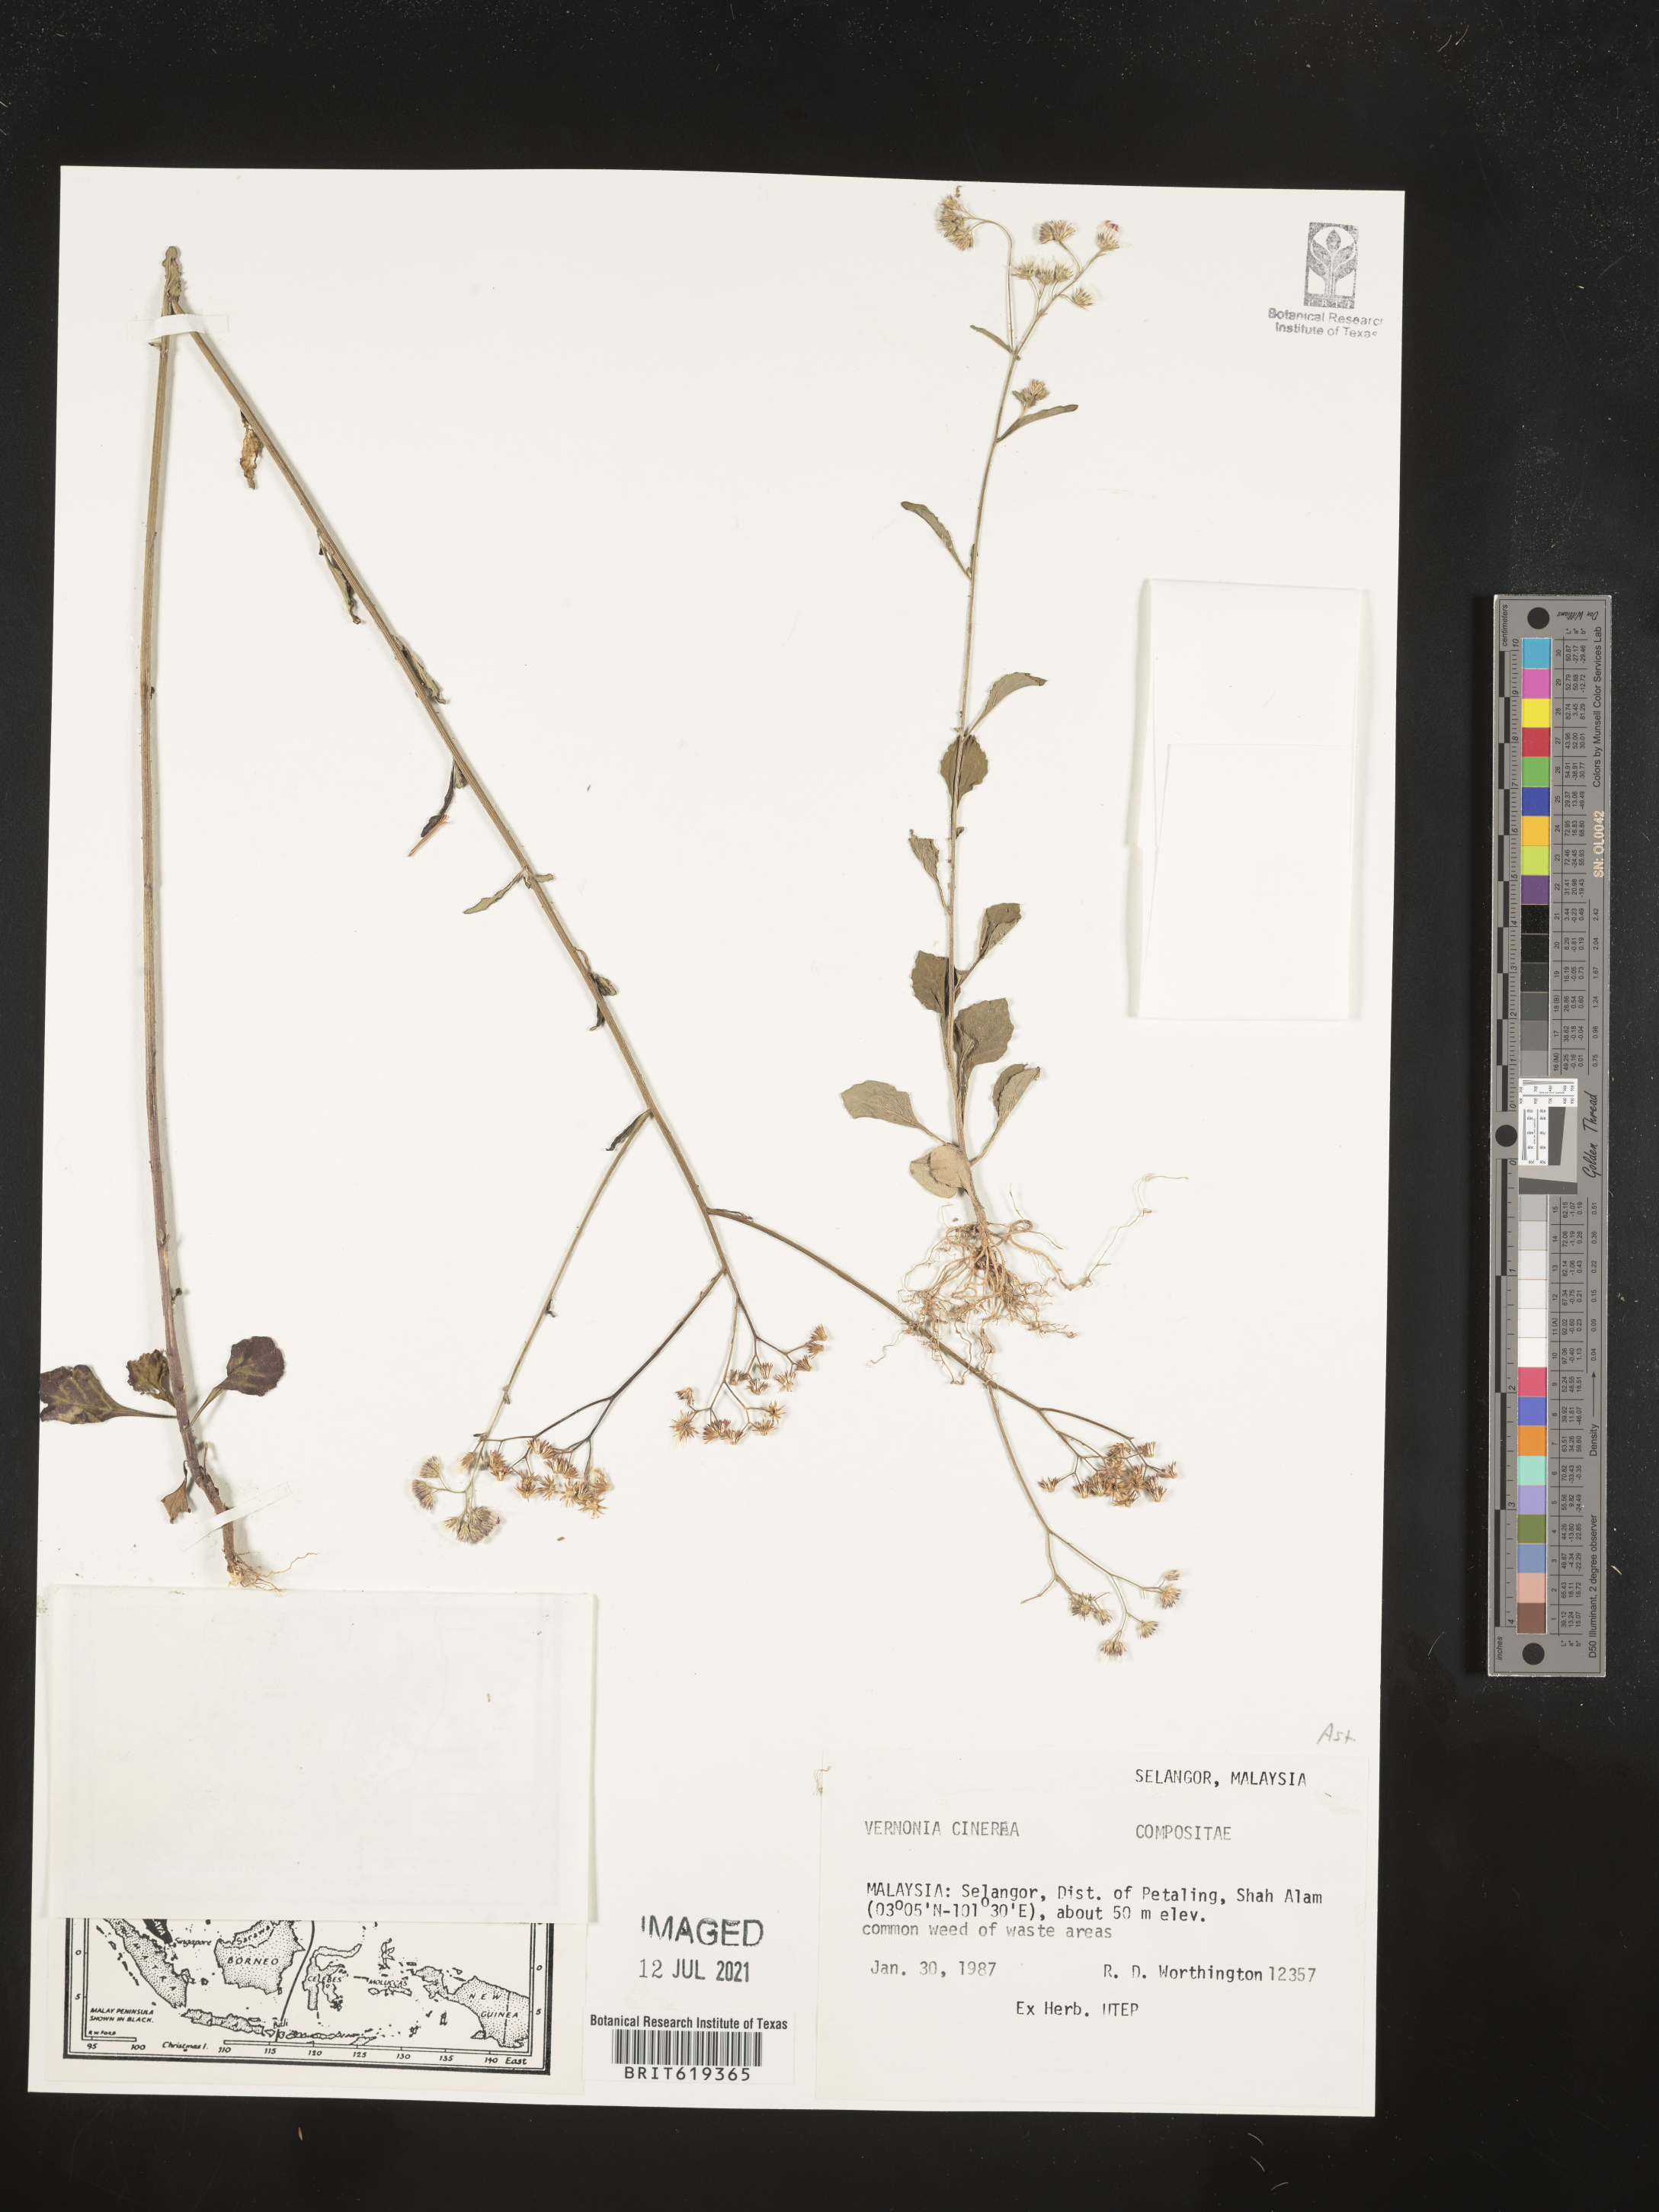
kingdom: Plantae
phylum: Tracheophyta
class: Magnoliopsida
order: Asterales
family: Asteraceae
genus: Cyanthillium
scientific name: Cyanthillium cinereum
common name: Little ironweed
